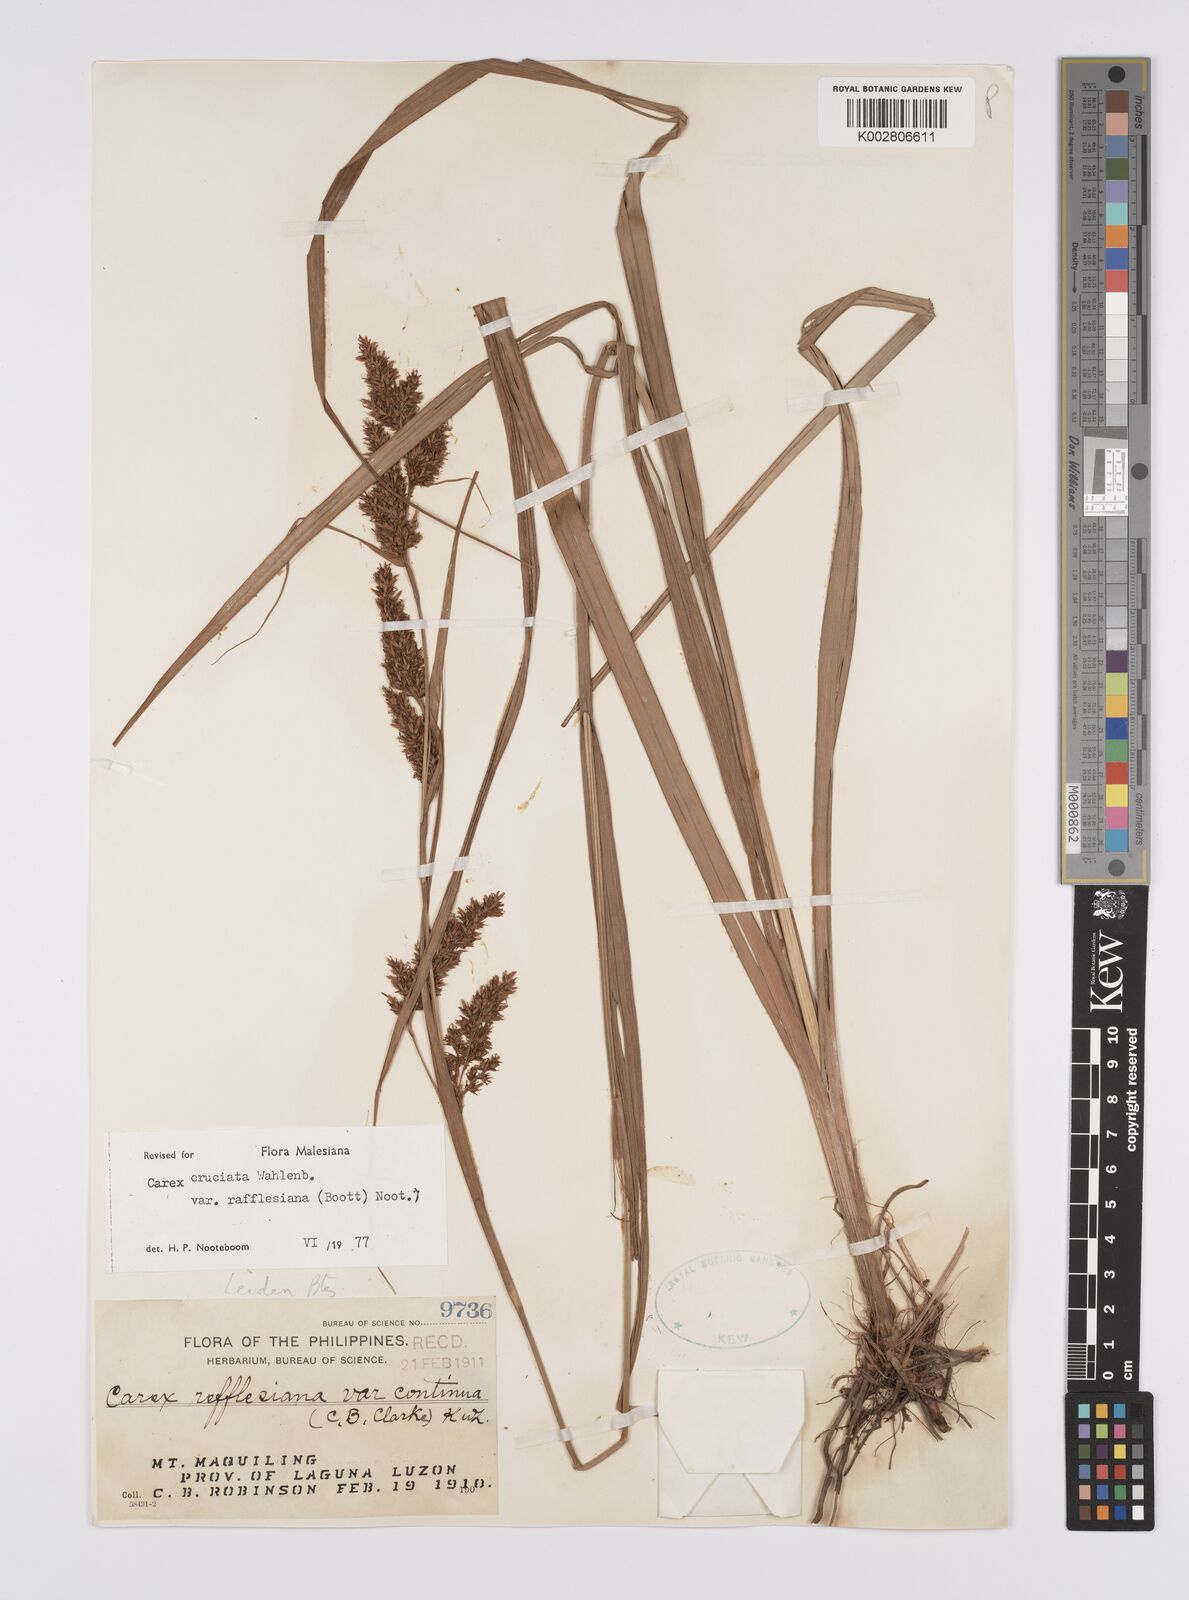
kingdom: Plantae
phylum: Tracheophyta
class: Liliopsida
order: Poales
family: Cyperaceae
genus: Carex
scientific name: Carex rafflesiana
